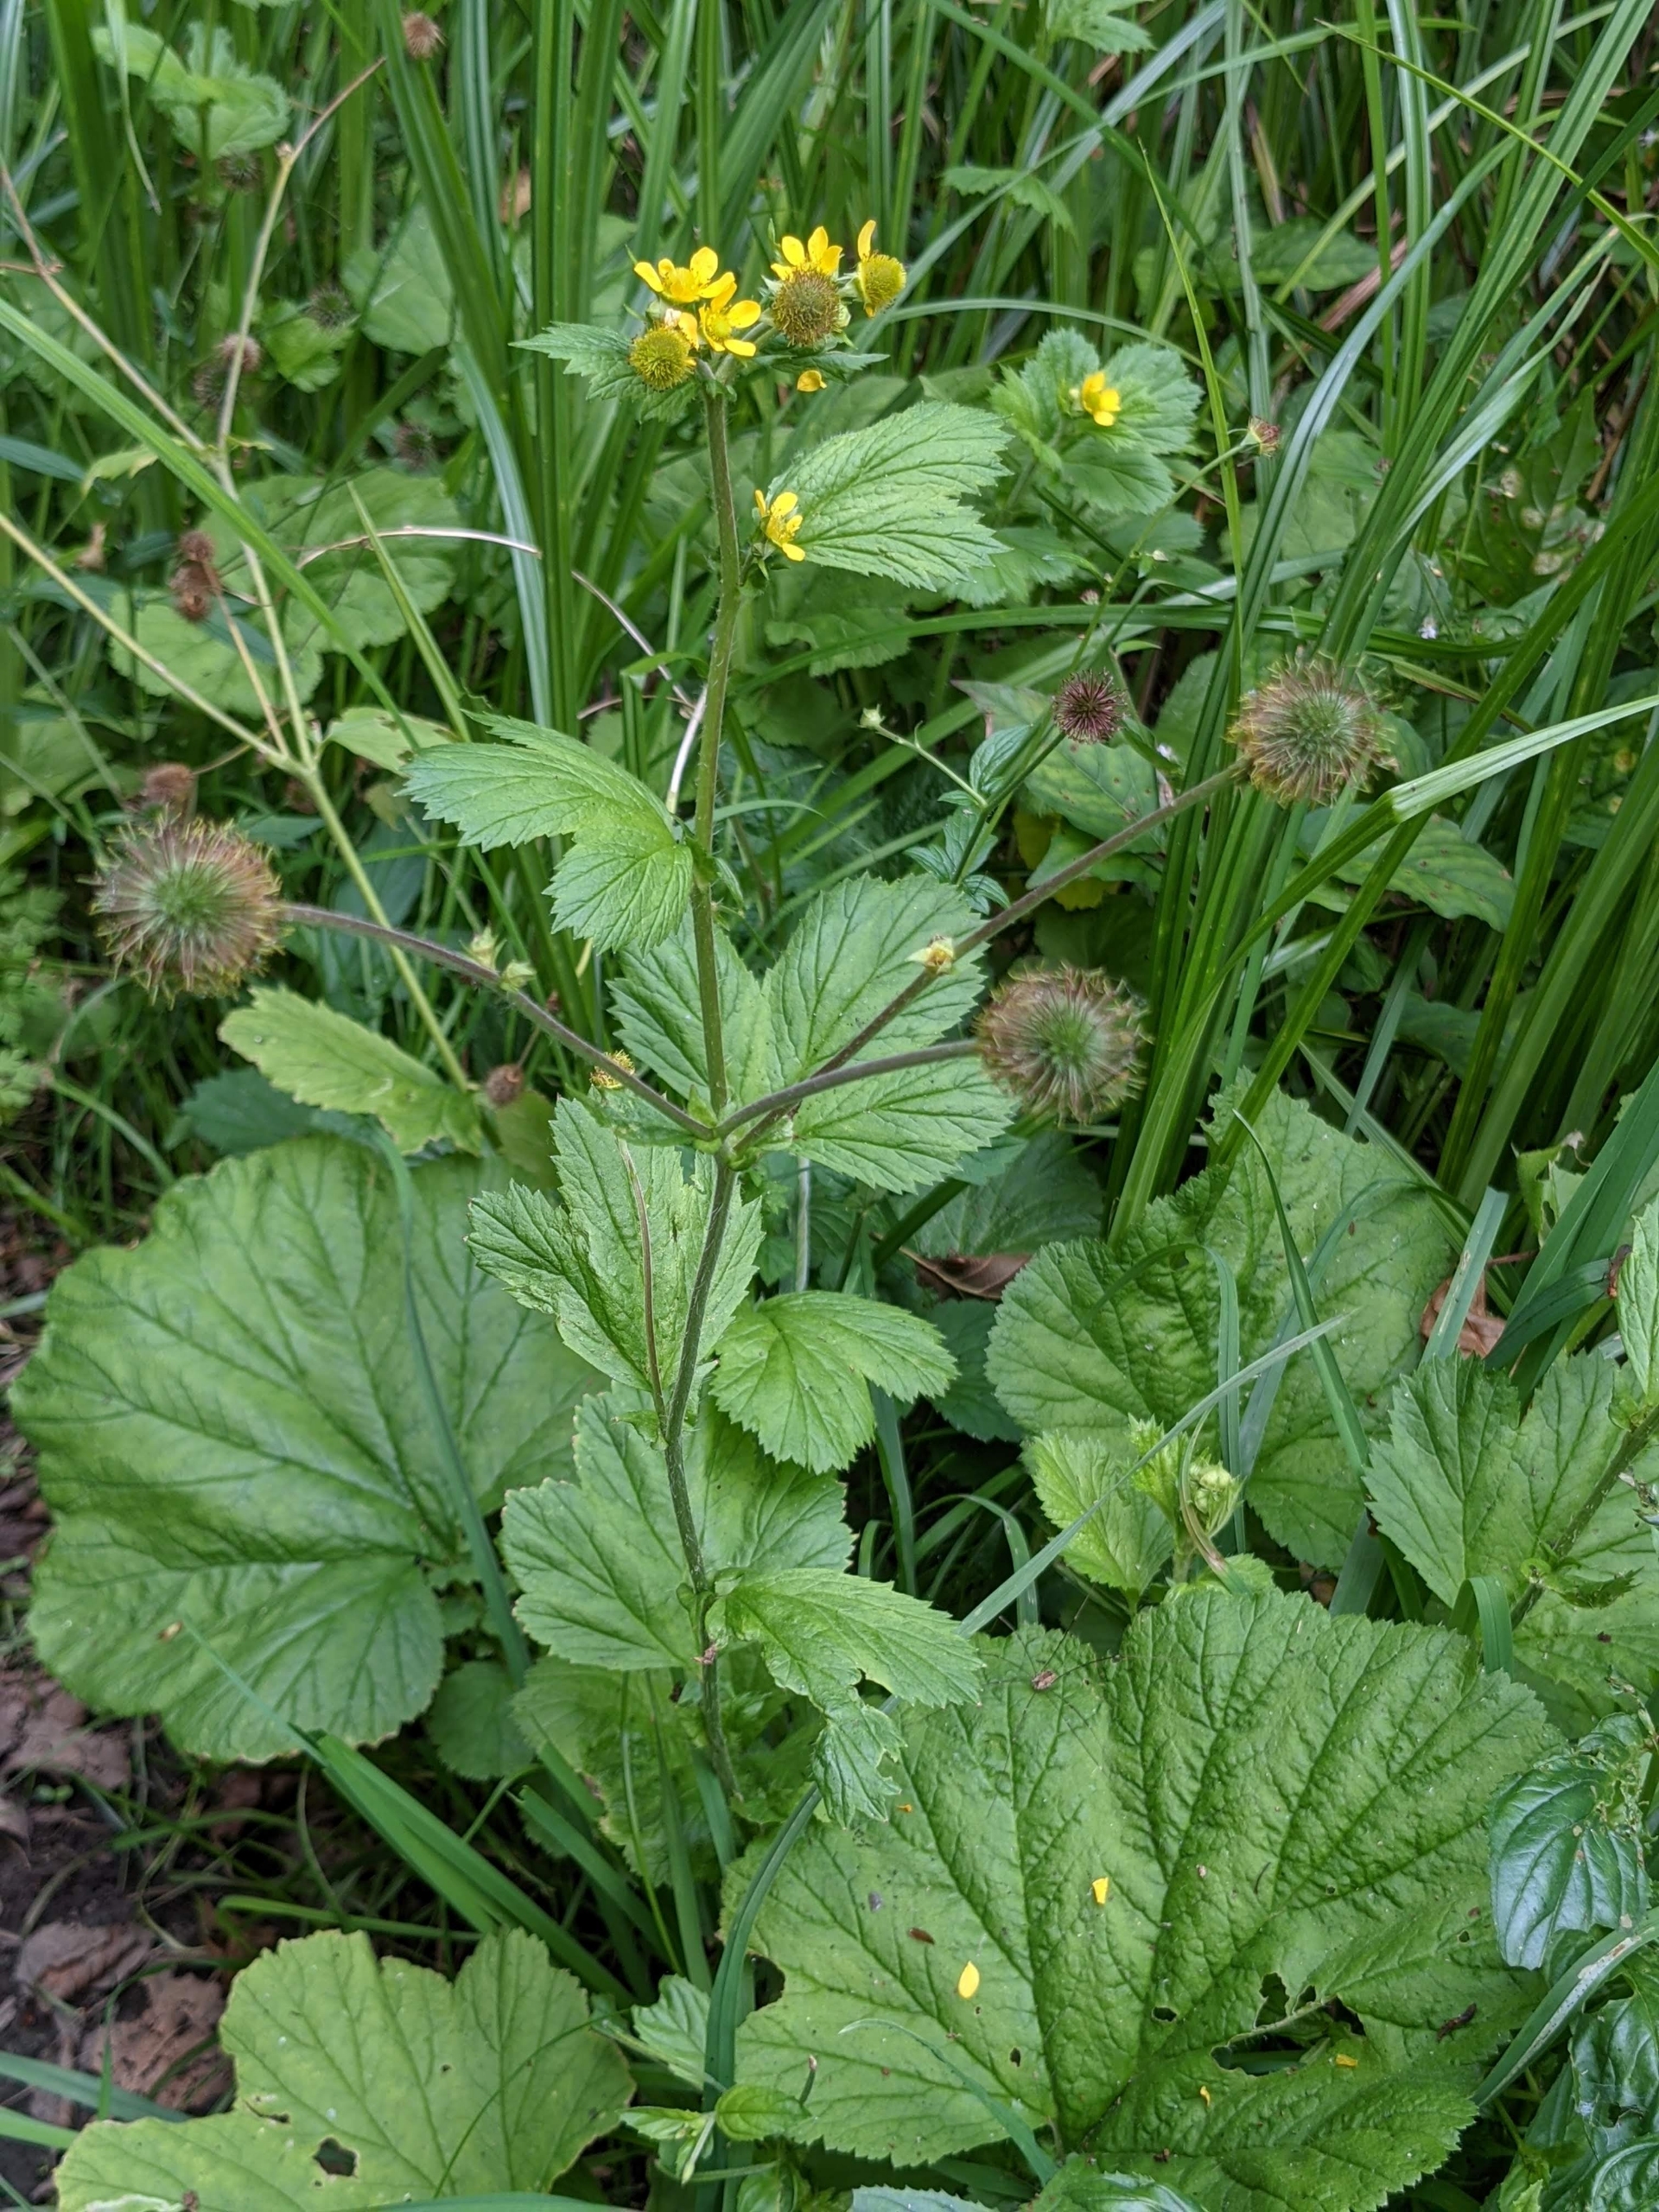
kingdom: Plantae
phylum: Tracheophyta
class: Magnoliopsida
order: Rosales
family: Rosaceae
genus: Geum
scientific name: Geum macrophyllum
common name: Amerikansk nellikerod
